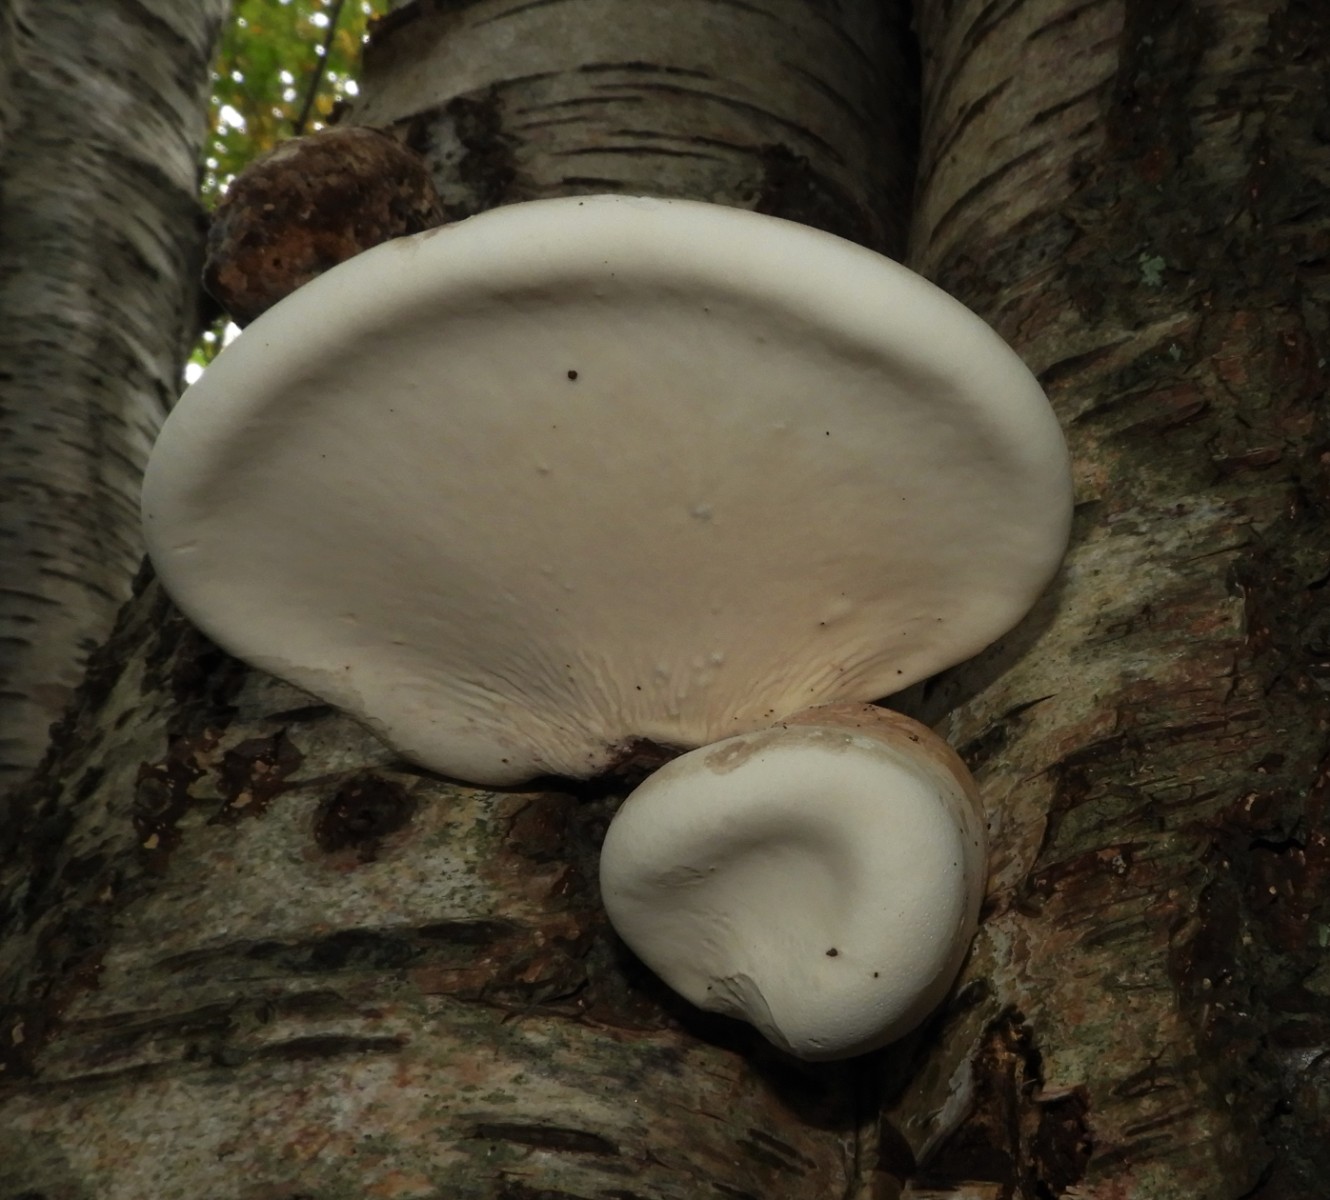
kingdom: Fungi
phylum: Basidiomycota
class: Agaricomycetes
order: Polyporales
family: Fomitopsidaceae
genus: Fomitopsis
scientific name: Fomitopsis betulina
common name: birkeporesvamp
